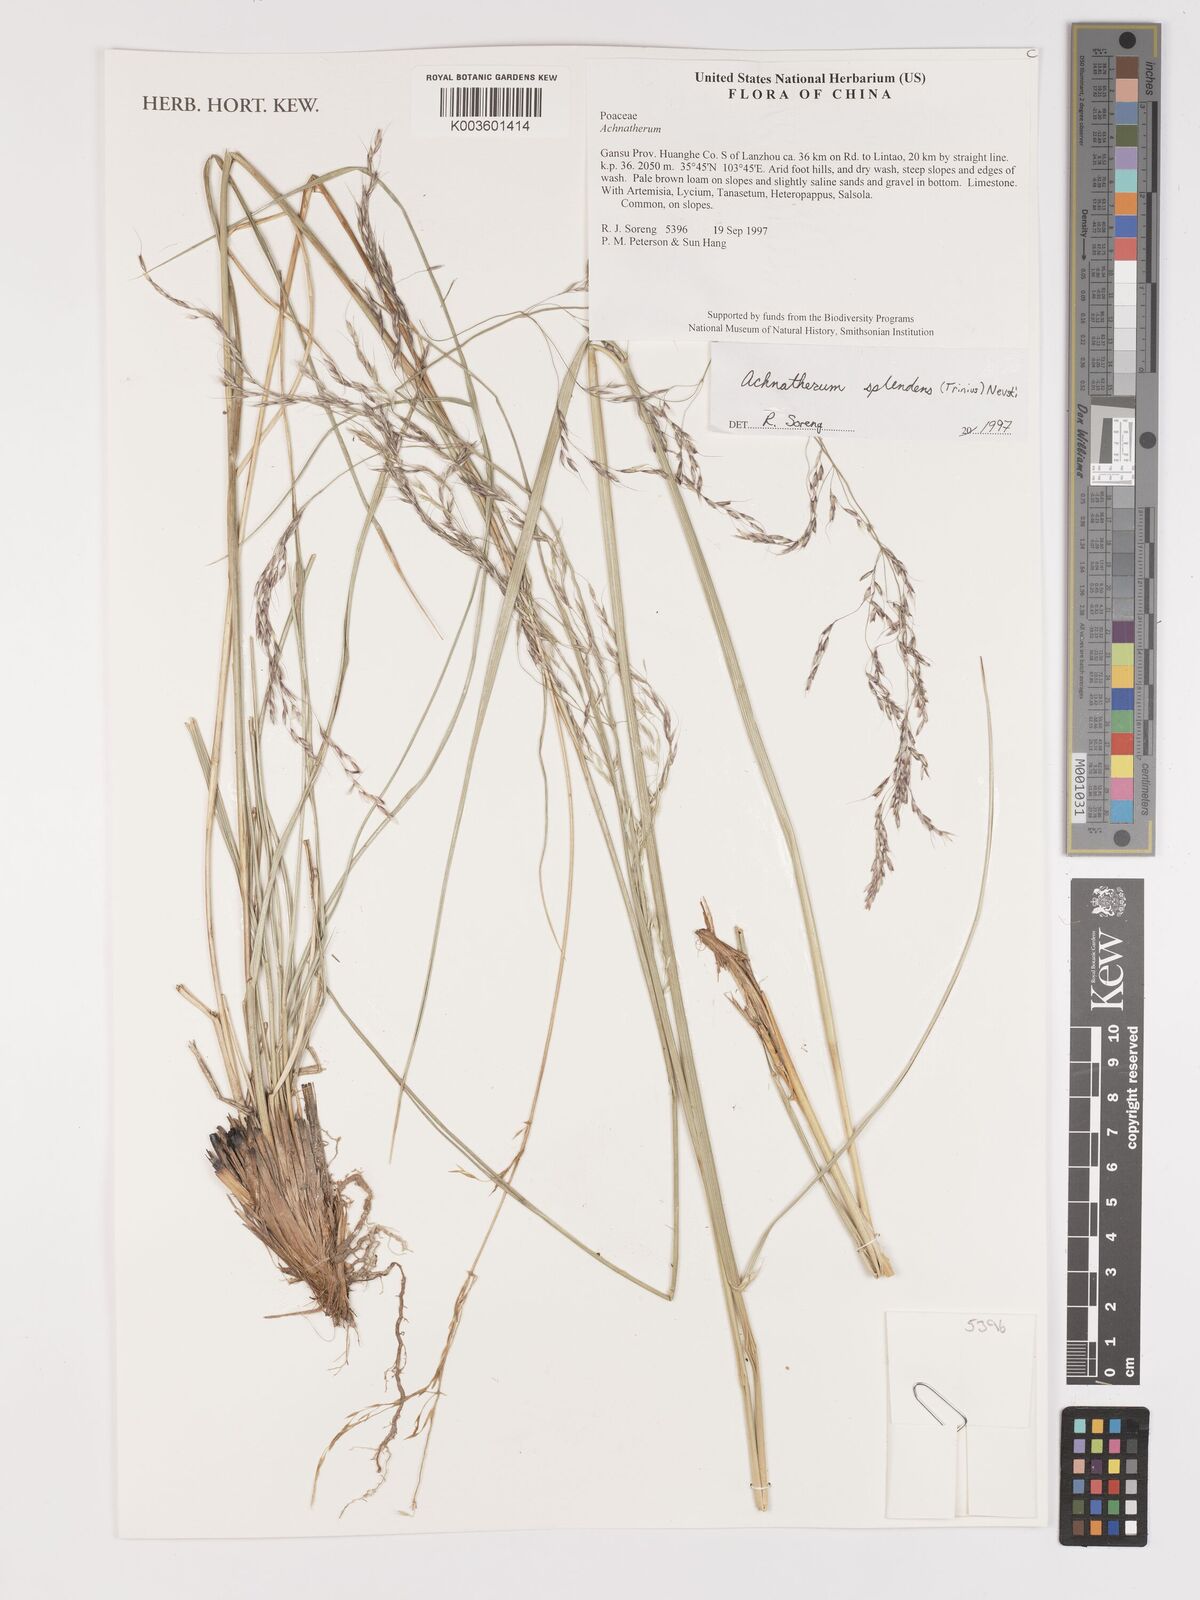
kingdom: Plantae
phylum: Tracheophyta
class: Liliopsida
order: Poales
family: Poaceae
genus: Neotrinia
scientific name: Neotrinia splendens
